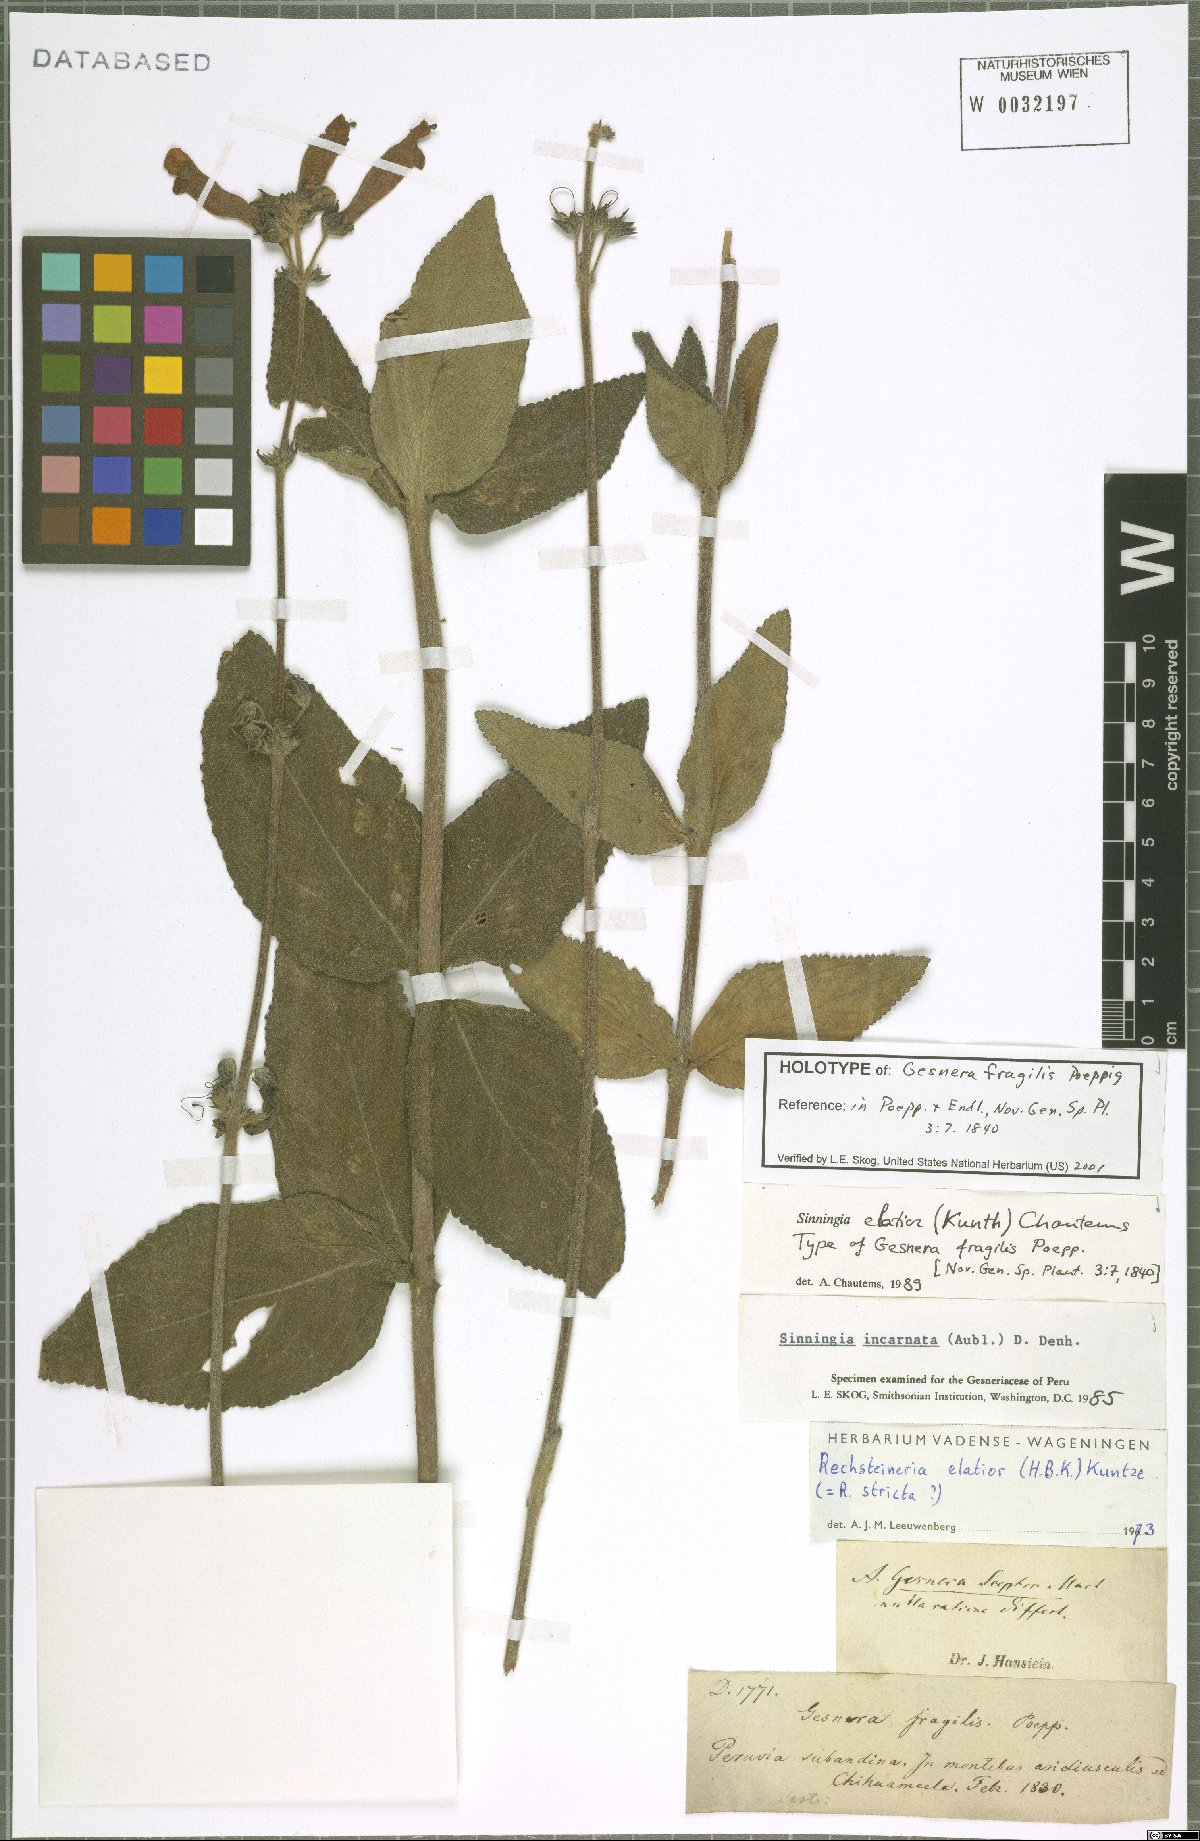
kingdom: Plantae
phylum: Tracheophyta
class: Magnoliopsida
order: Lamiales
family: Gesneriaceae
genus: Sinningia
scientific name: Sinningia elatior
